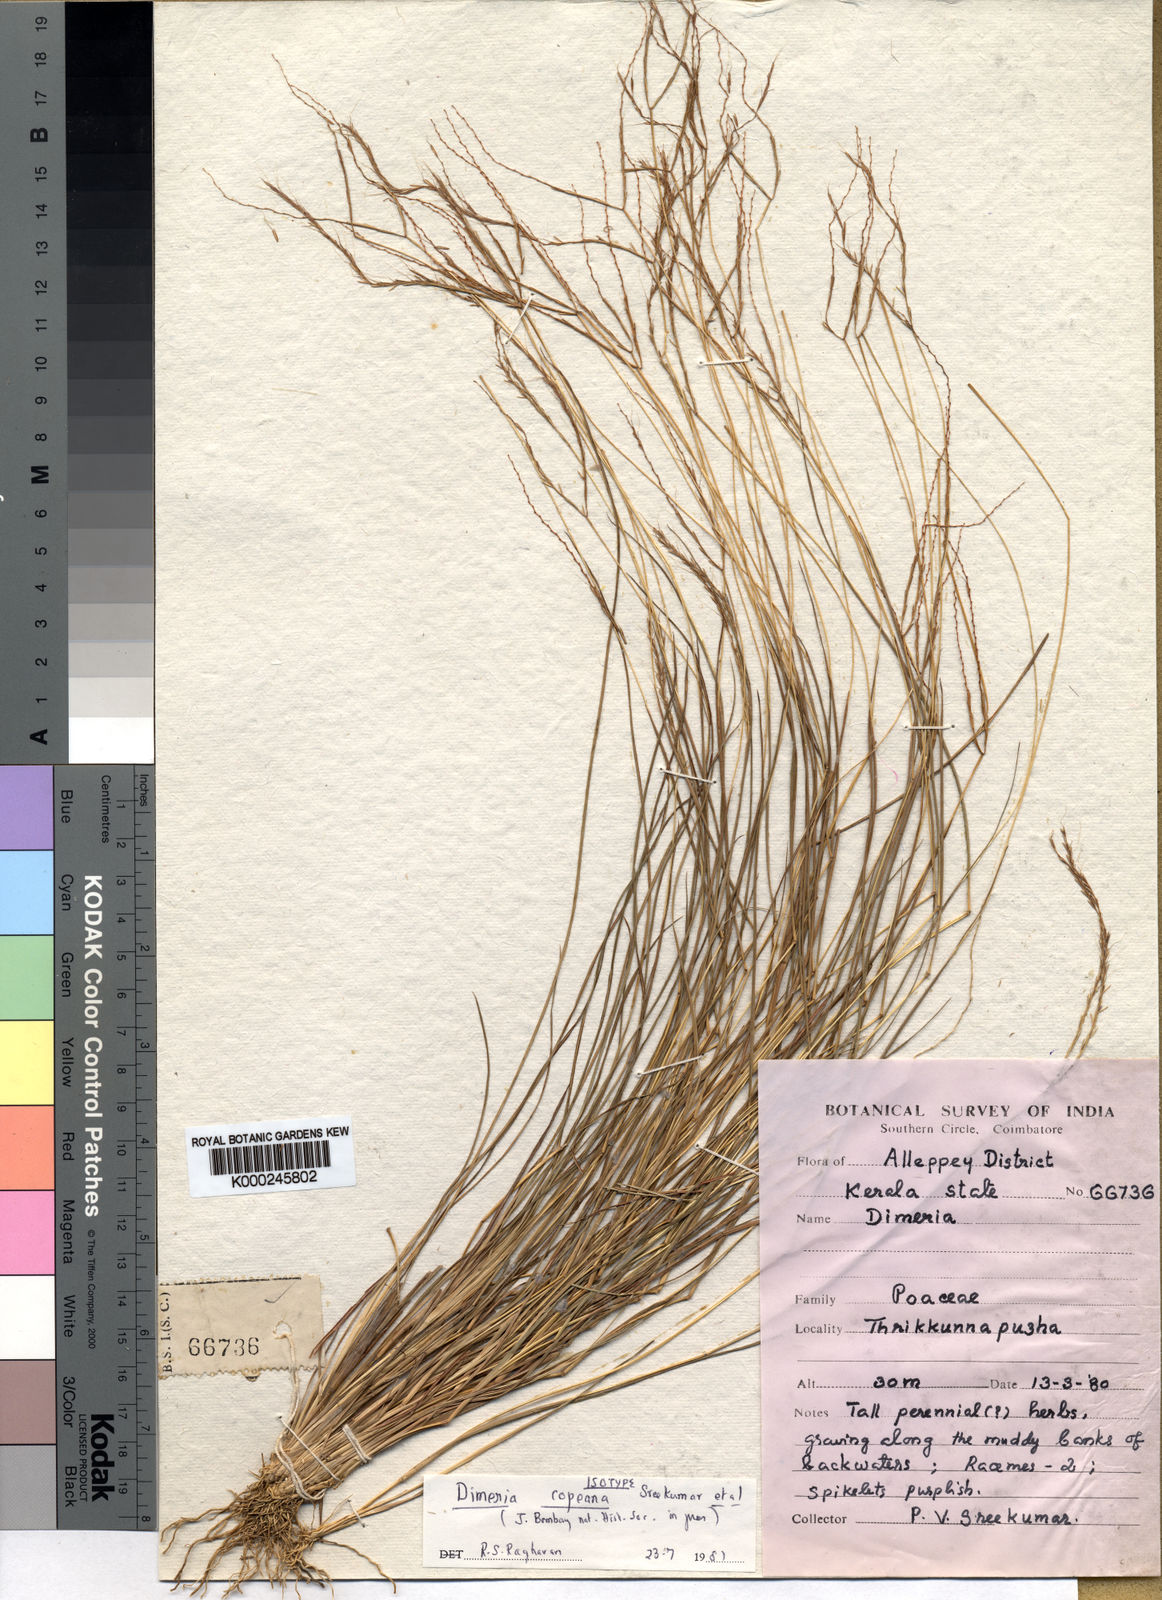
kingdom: Plantae
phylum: Tracheophyta
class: Liliopsida
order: Poales
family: Poaceae
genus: Dimeria
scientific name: Dimeria
